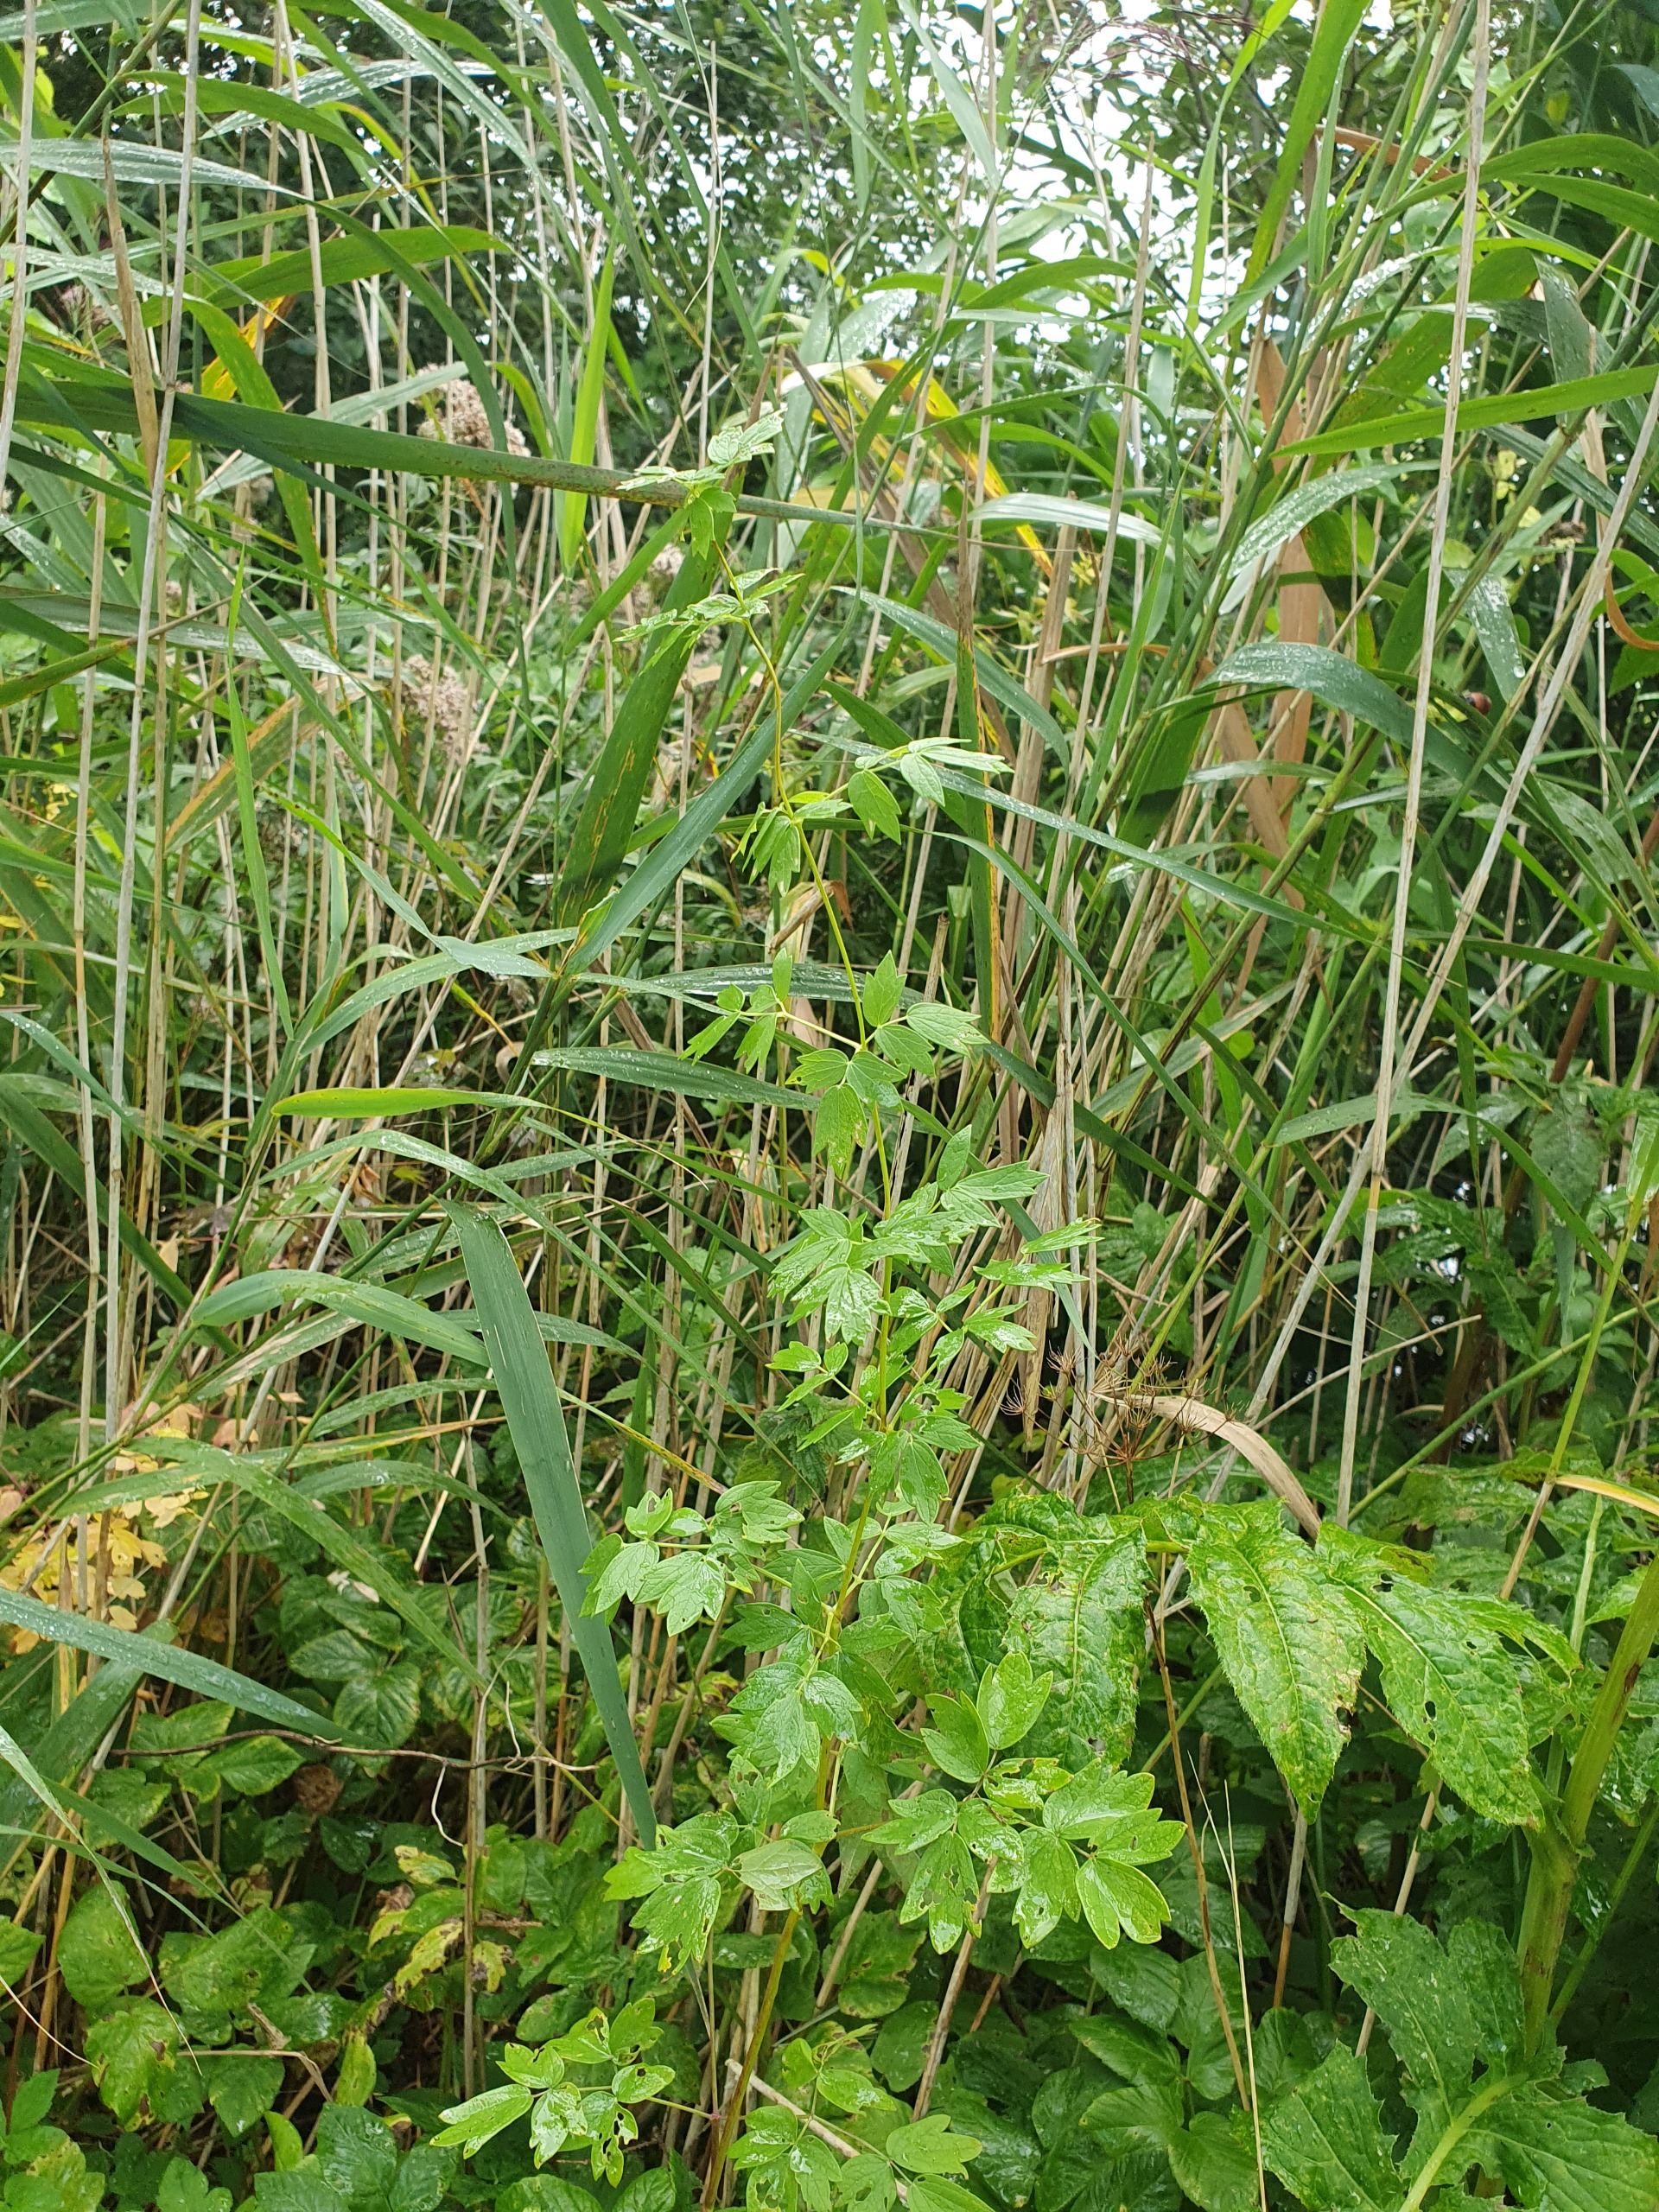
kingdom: Plantae
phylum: Tracheophyta
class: Magnoliopsida
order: Ranunculales
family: Ranunculaceae
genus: Thalictrum
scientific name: Thalictrum flavum
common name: Gul frøstjerne
